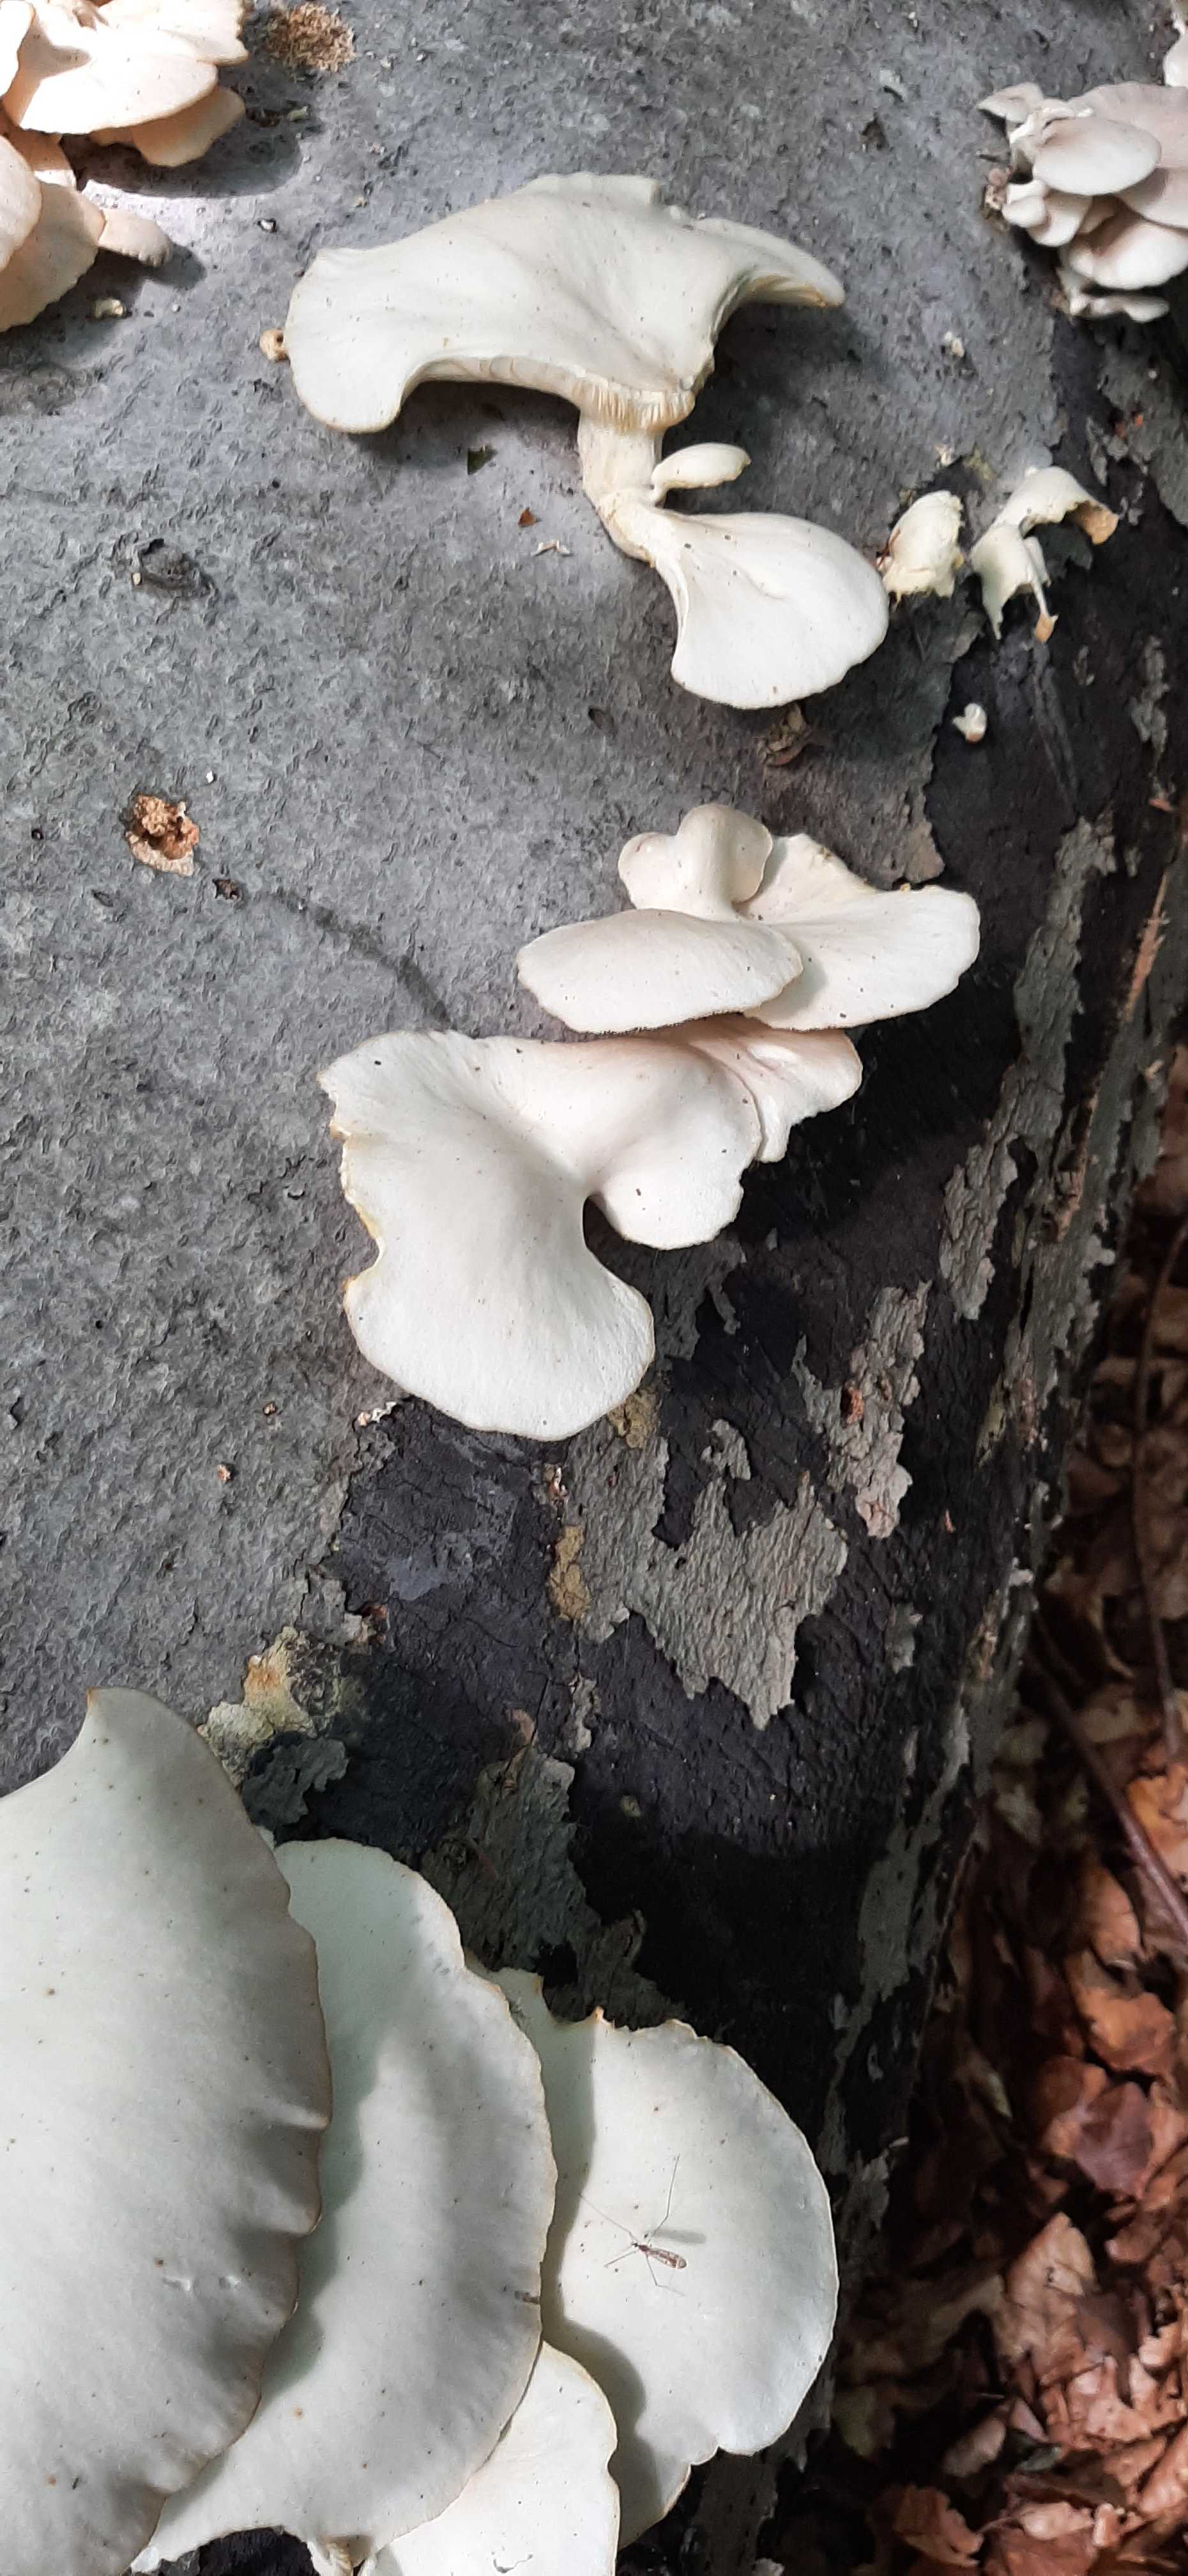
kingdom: Fungi
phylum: Basidiomycota
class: Agaricomycetes
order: Agaricales
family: Pleurotaceae
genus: Pleurotus
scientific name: Pleurotus pulmonarius
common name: sommer-østershat
